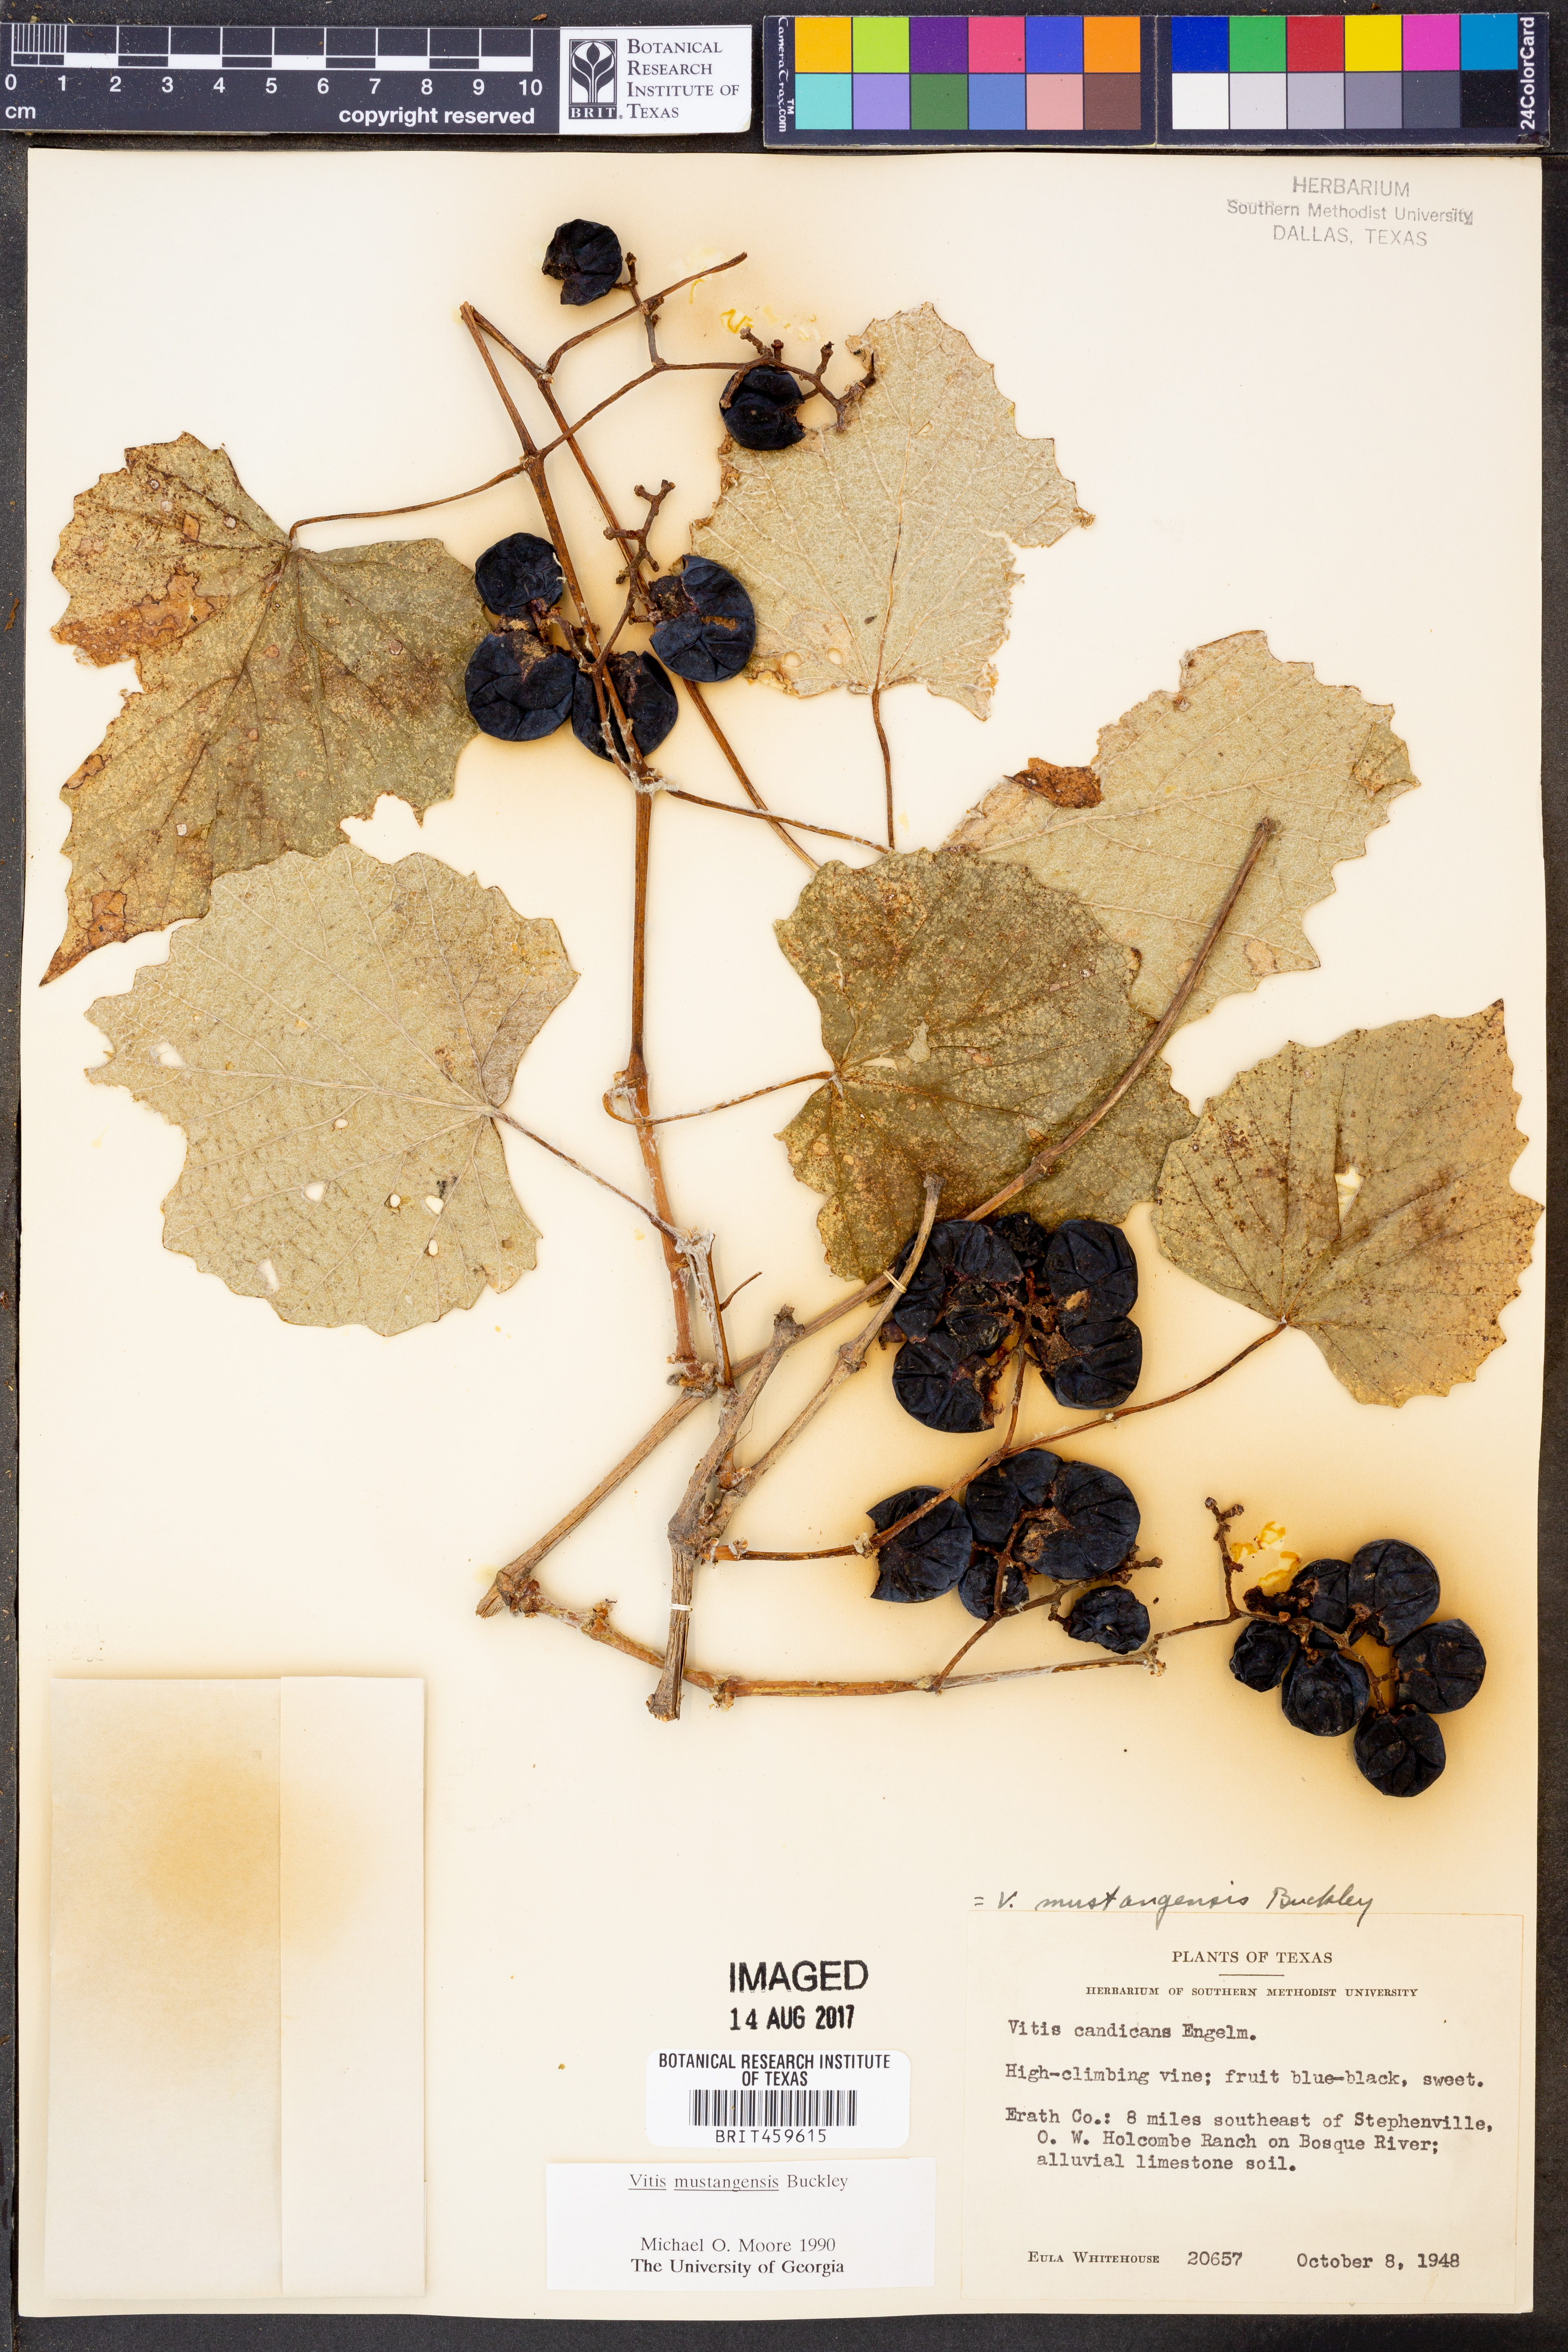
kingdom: Plantae
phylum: Tracheophyta
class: Magnoliopsida
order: Vitales
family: Vitaceae
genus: Vitis
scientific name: Vitis mustangensis
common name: Mustang grape
